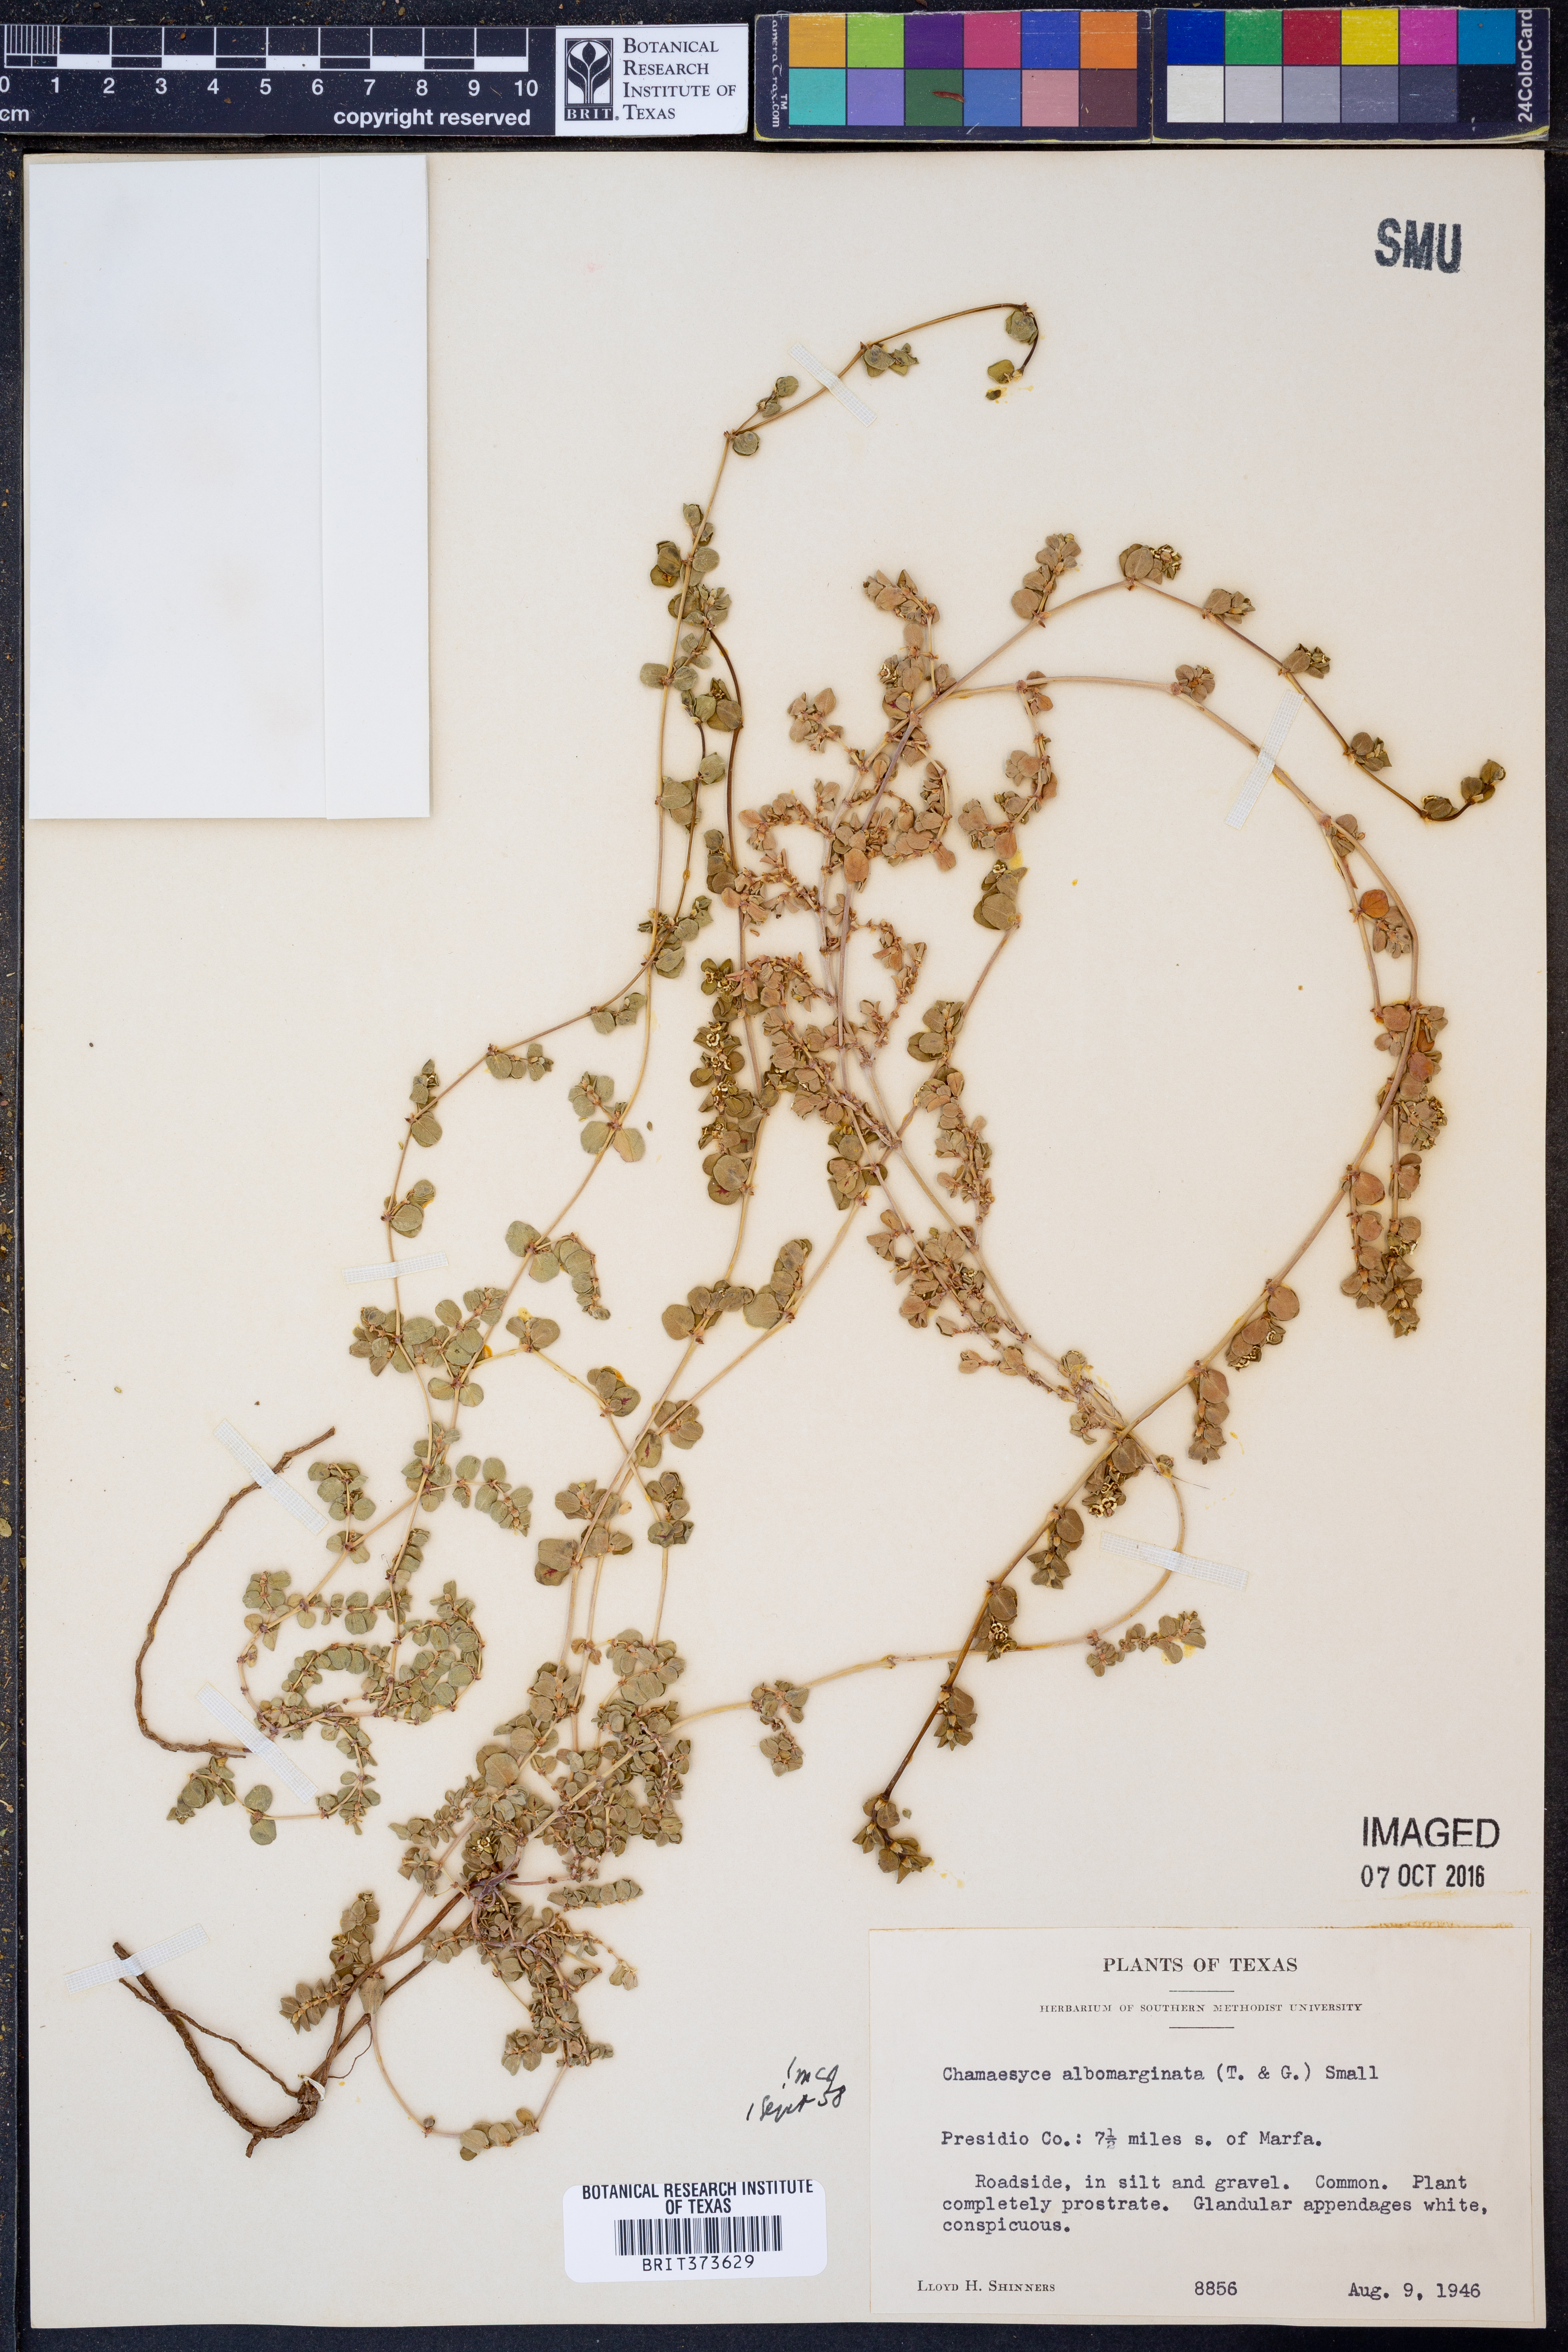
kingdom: Plantae
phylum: Tracheophyta
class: Magnoliopsida
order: Malpighiales
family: Euphorbiaceae
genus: Euphorbia
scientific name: Euphorbia albomarginata
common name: Whitemargin sandmat
